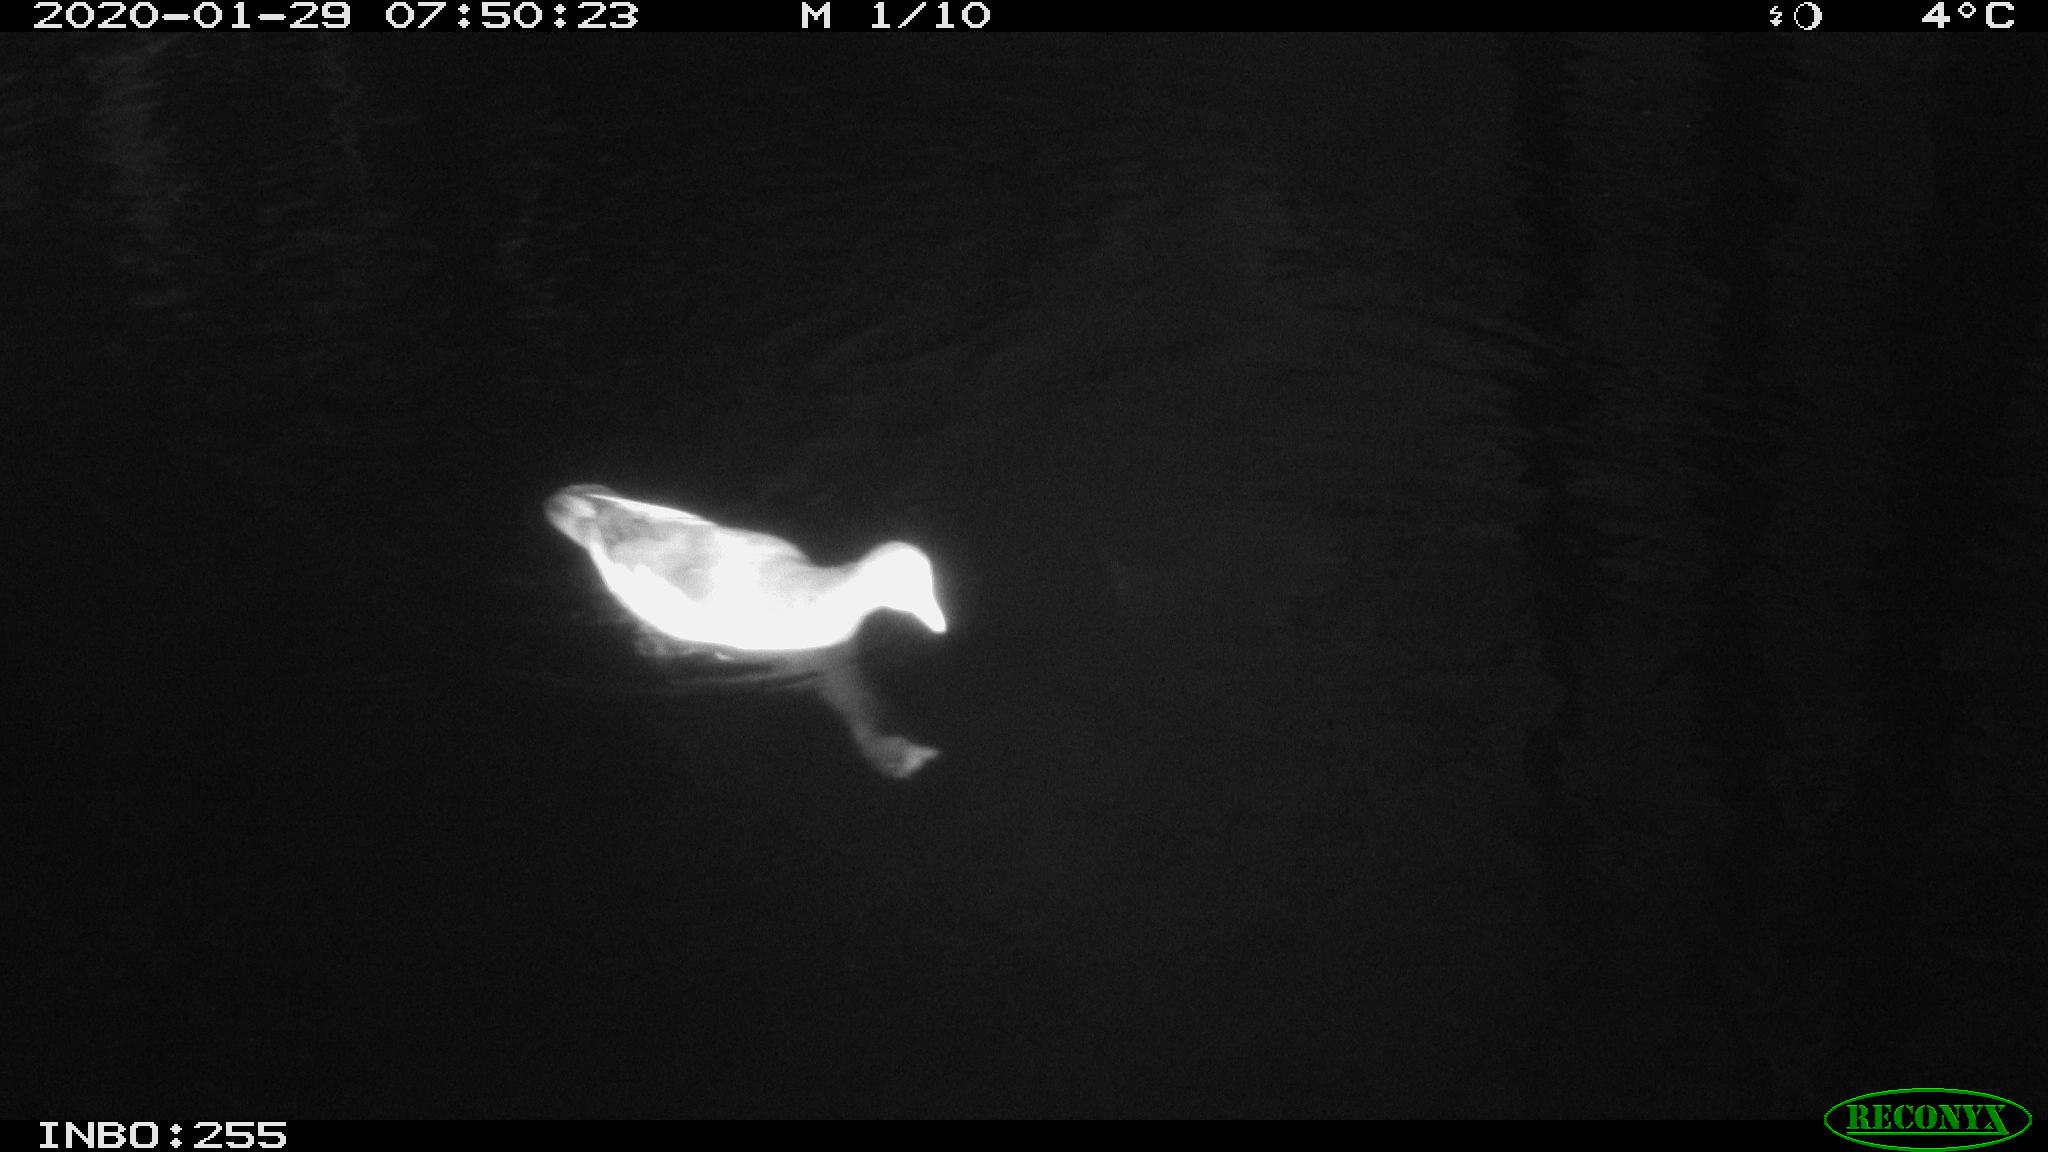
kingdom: Animalia
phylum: Chordata
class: Aves
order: Gruiformes
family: Rallidae
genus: Gallinula
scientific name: Gallinula chloropus
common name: Common moorhen
